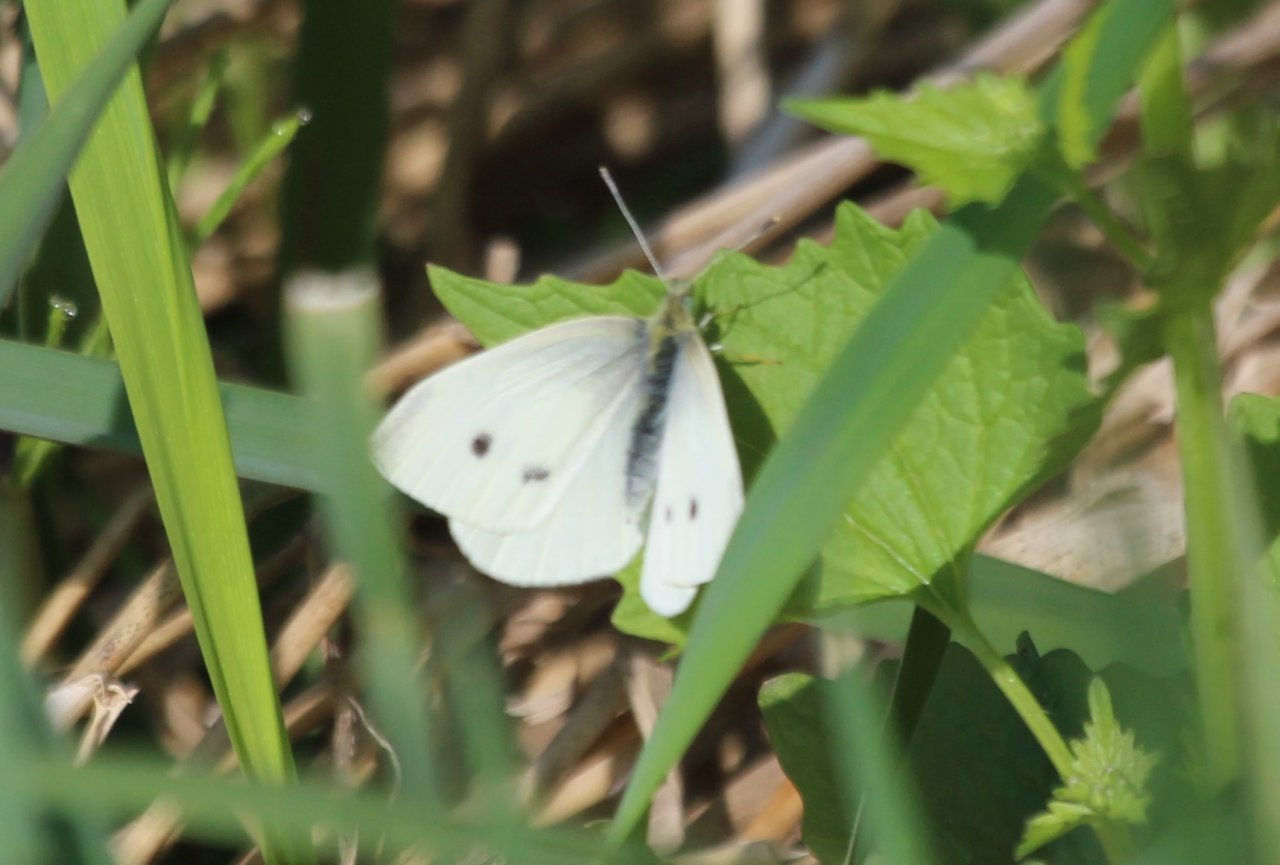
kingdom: Animalia
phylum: Arthropoda
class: Insecta
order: Lepidoptera
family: Pieridae
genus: Pieris
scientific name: Pieris rapae
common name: Cabbage White
